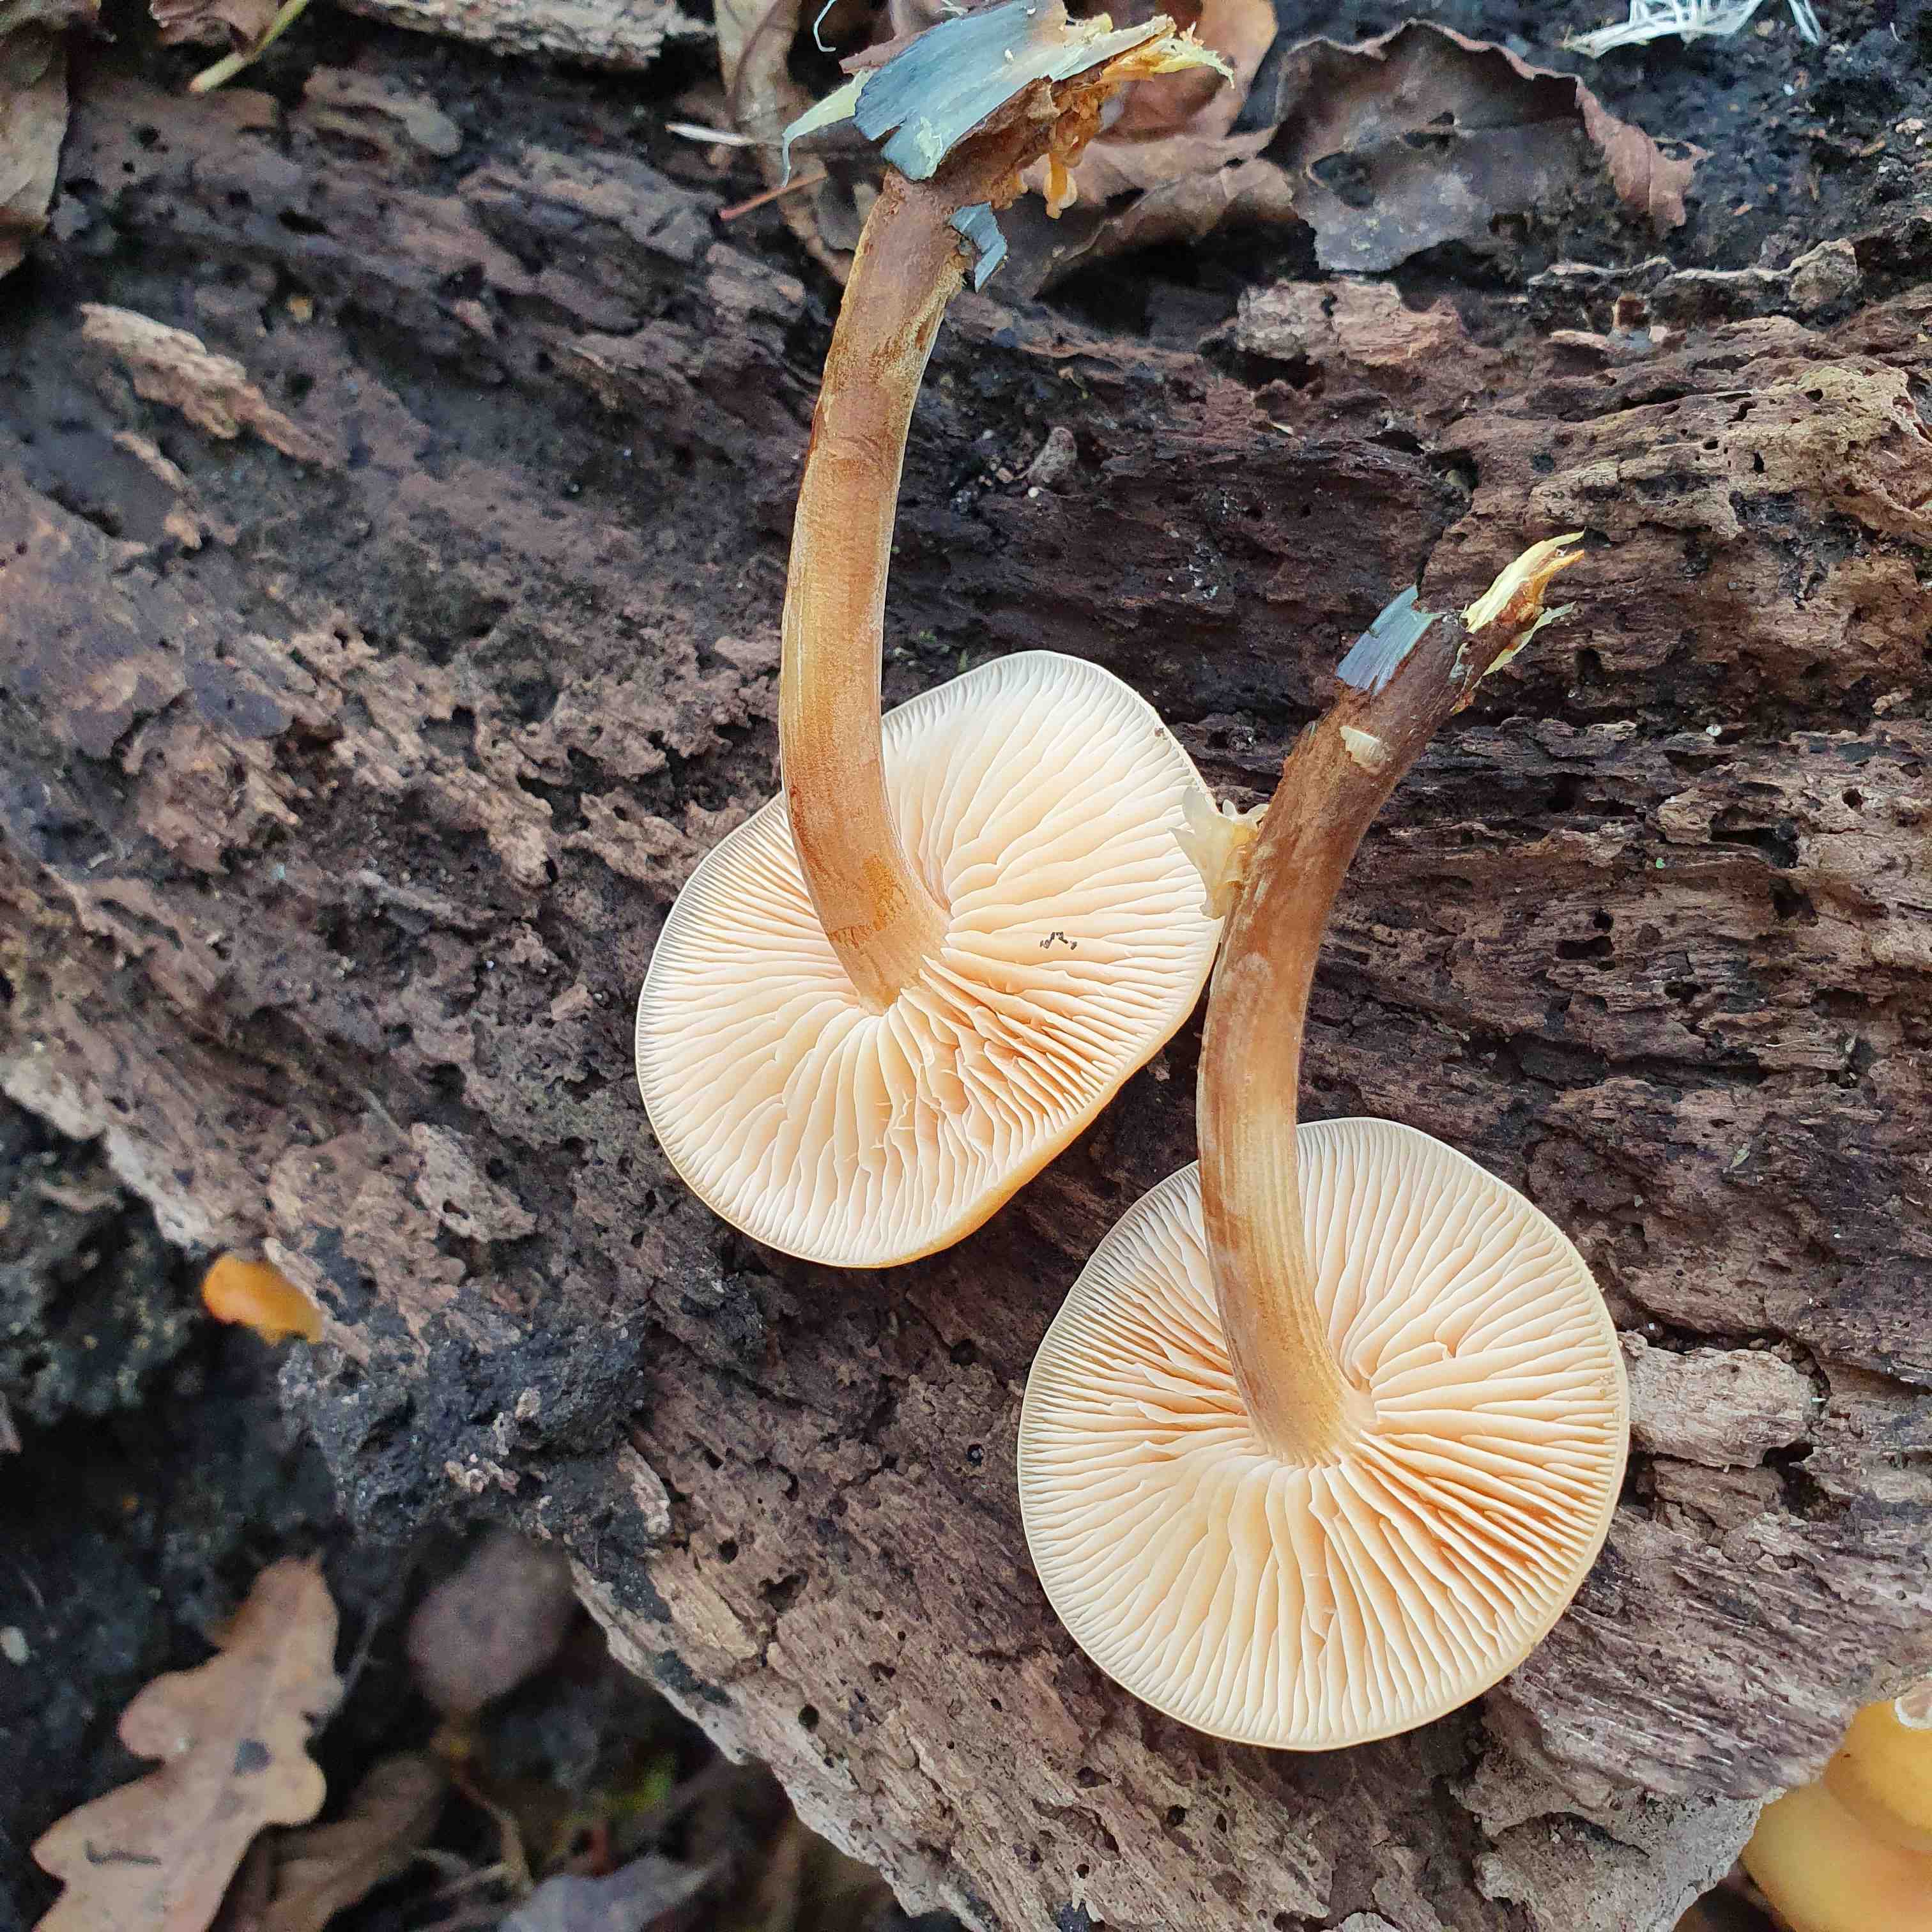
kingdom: Fungi
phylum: Basidiomycota
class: Agaricomycetes
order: Agaricales
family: Physalacriaceae
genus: Flammulina
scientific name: Flammulina velutipes
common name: gul fløjlsfod
